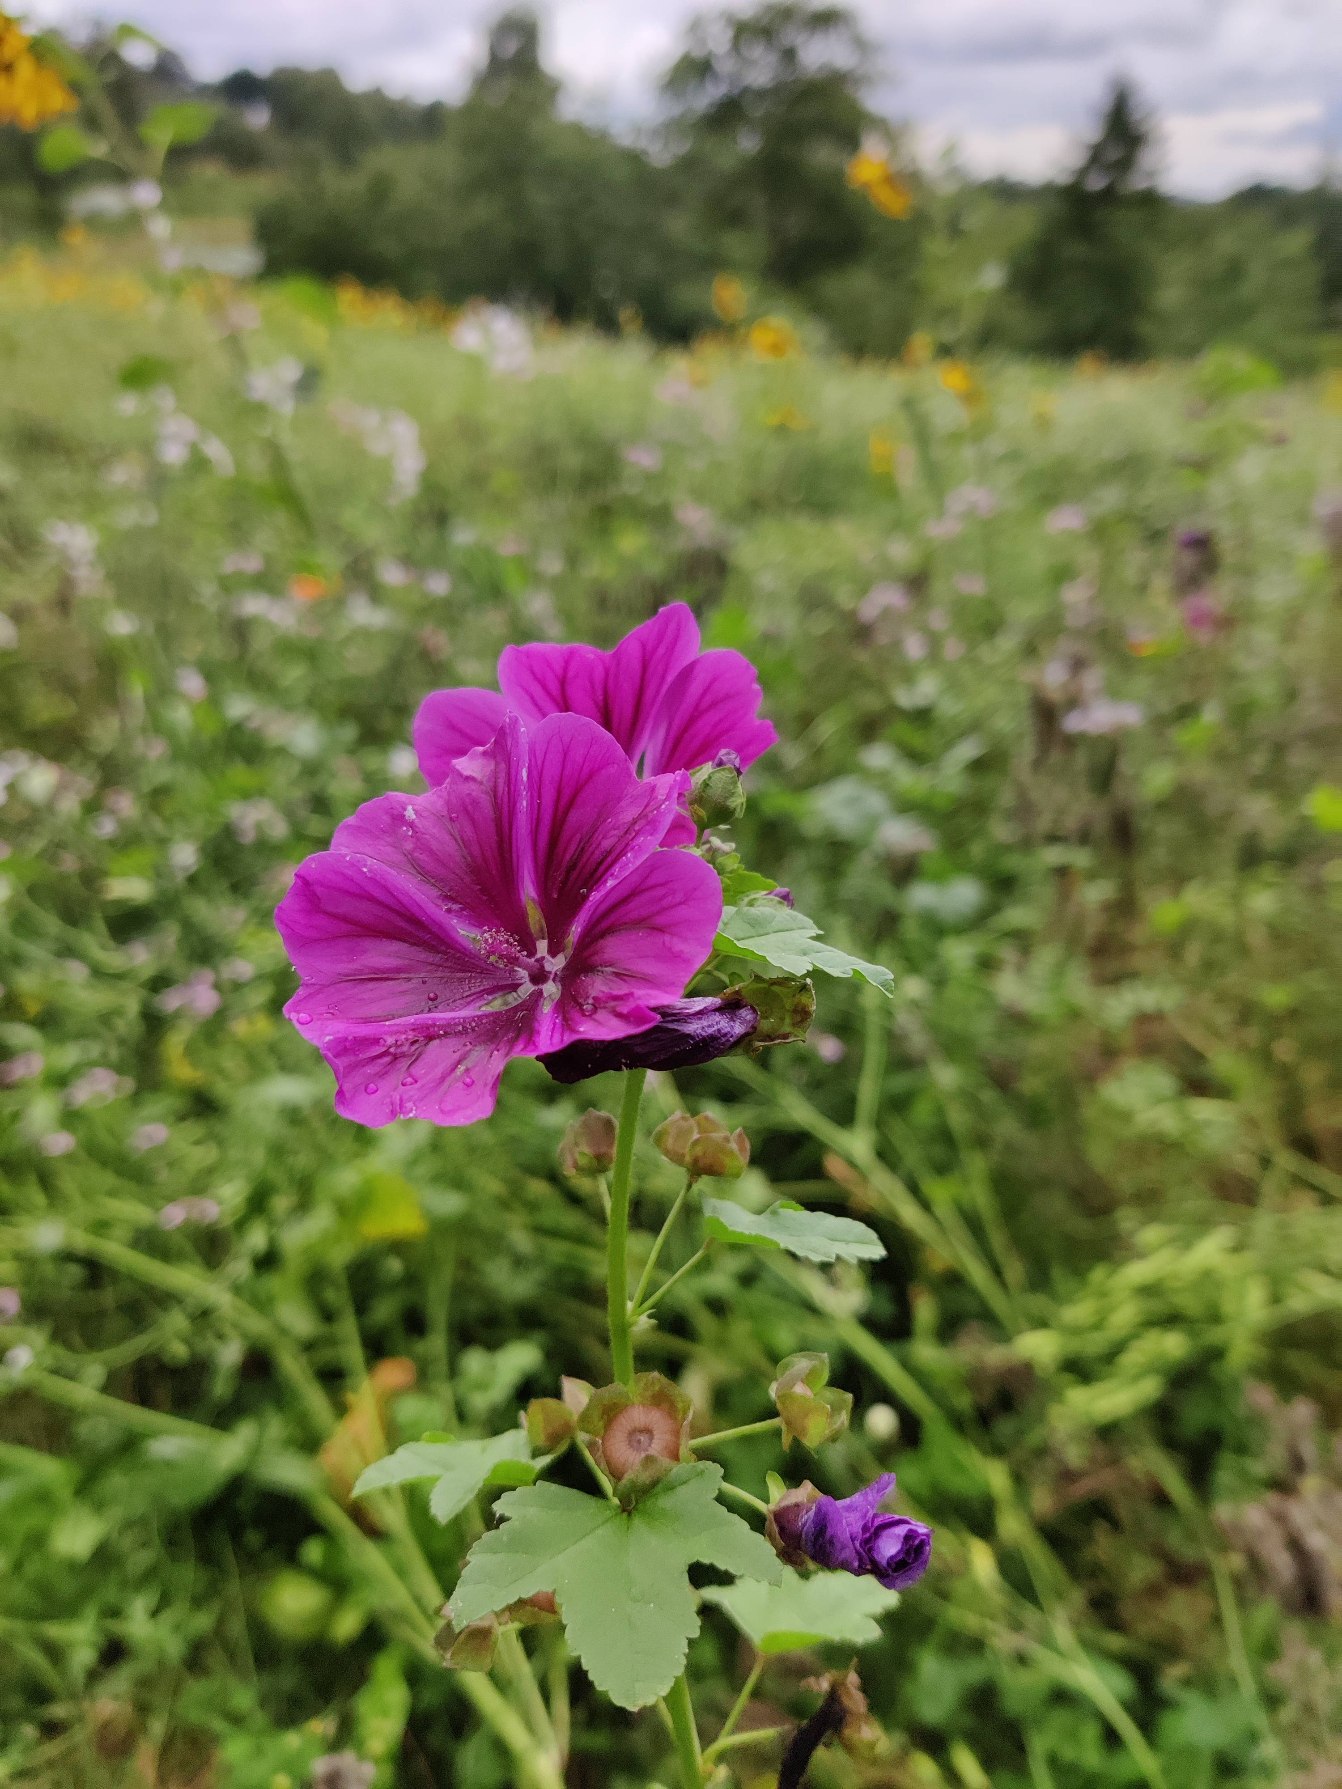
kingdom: Plantae
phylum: Tracheophyta
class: Magnoliopsida
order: Malvales
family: Malvaceae
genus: Malva
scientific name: Malva sylvestris
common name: Stor katost
